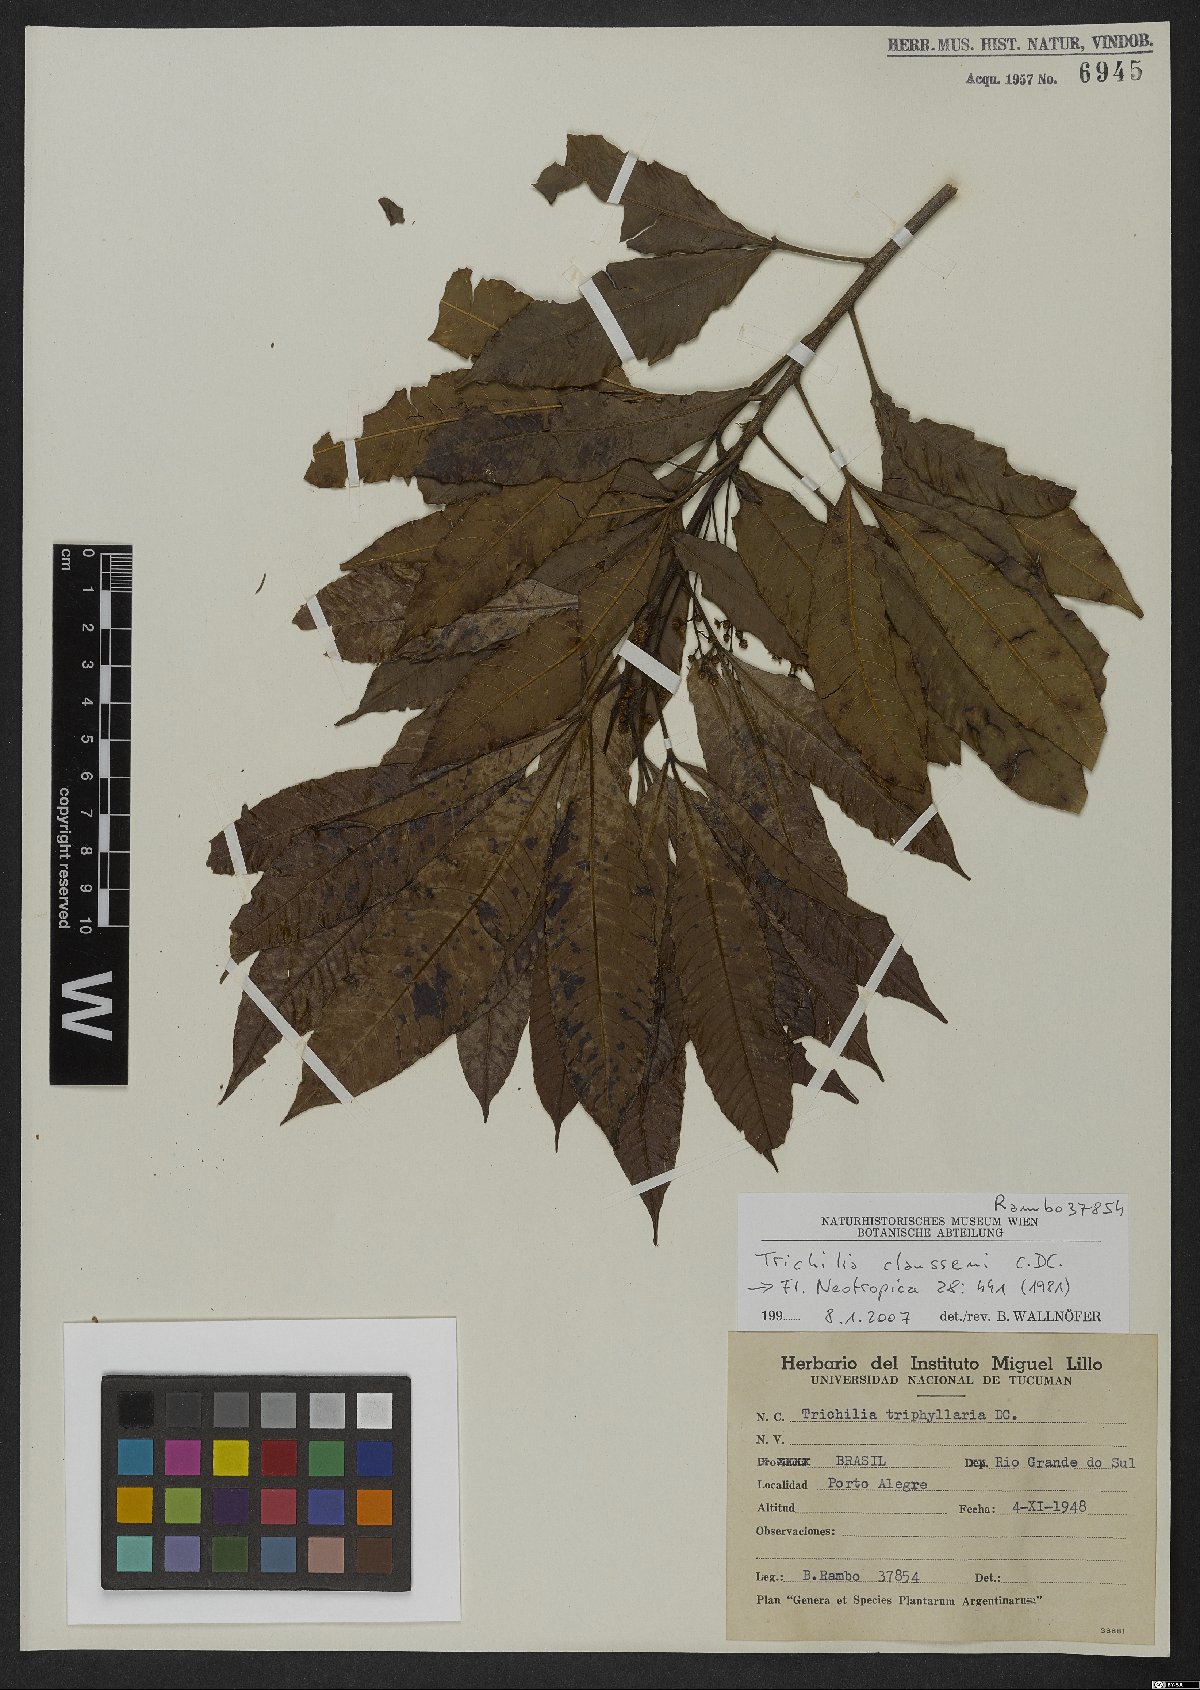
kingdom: Plantae
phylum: Tracheophyta
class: Magnoliopsida
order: Sapindales
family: Meliaceae
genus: Trichilia
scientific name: Trichilia claussenii
